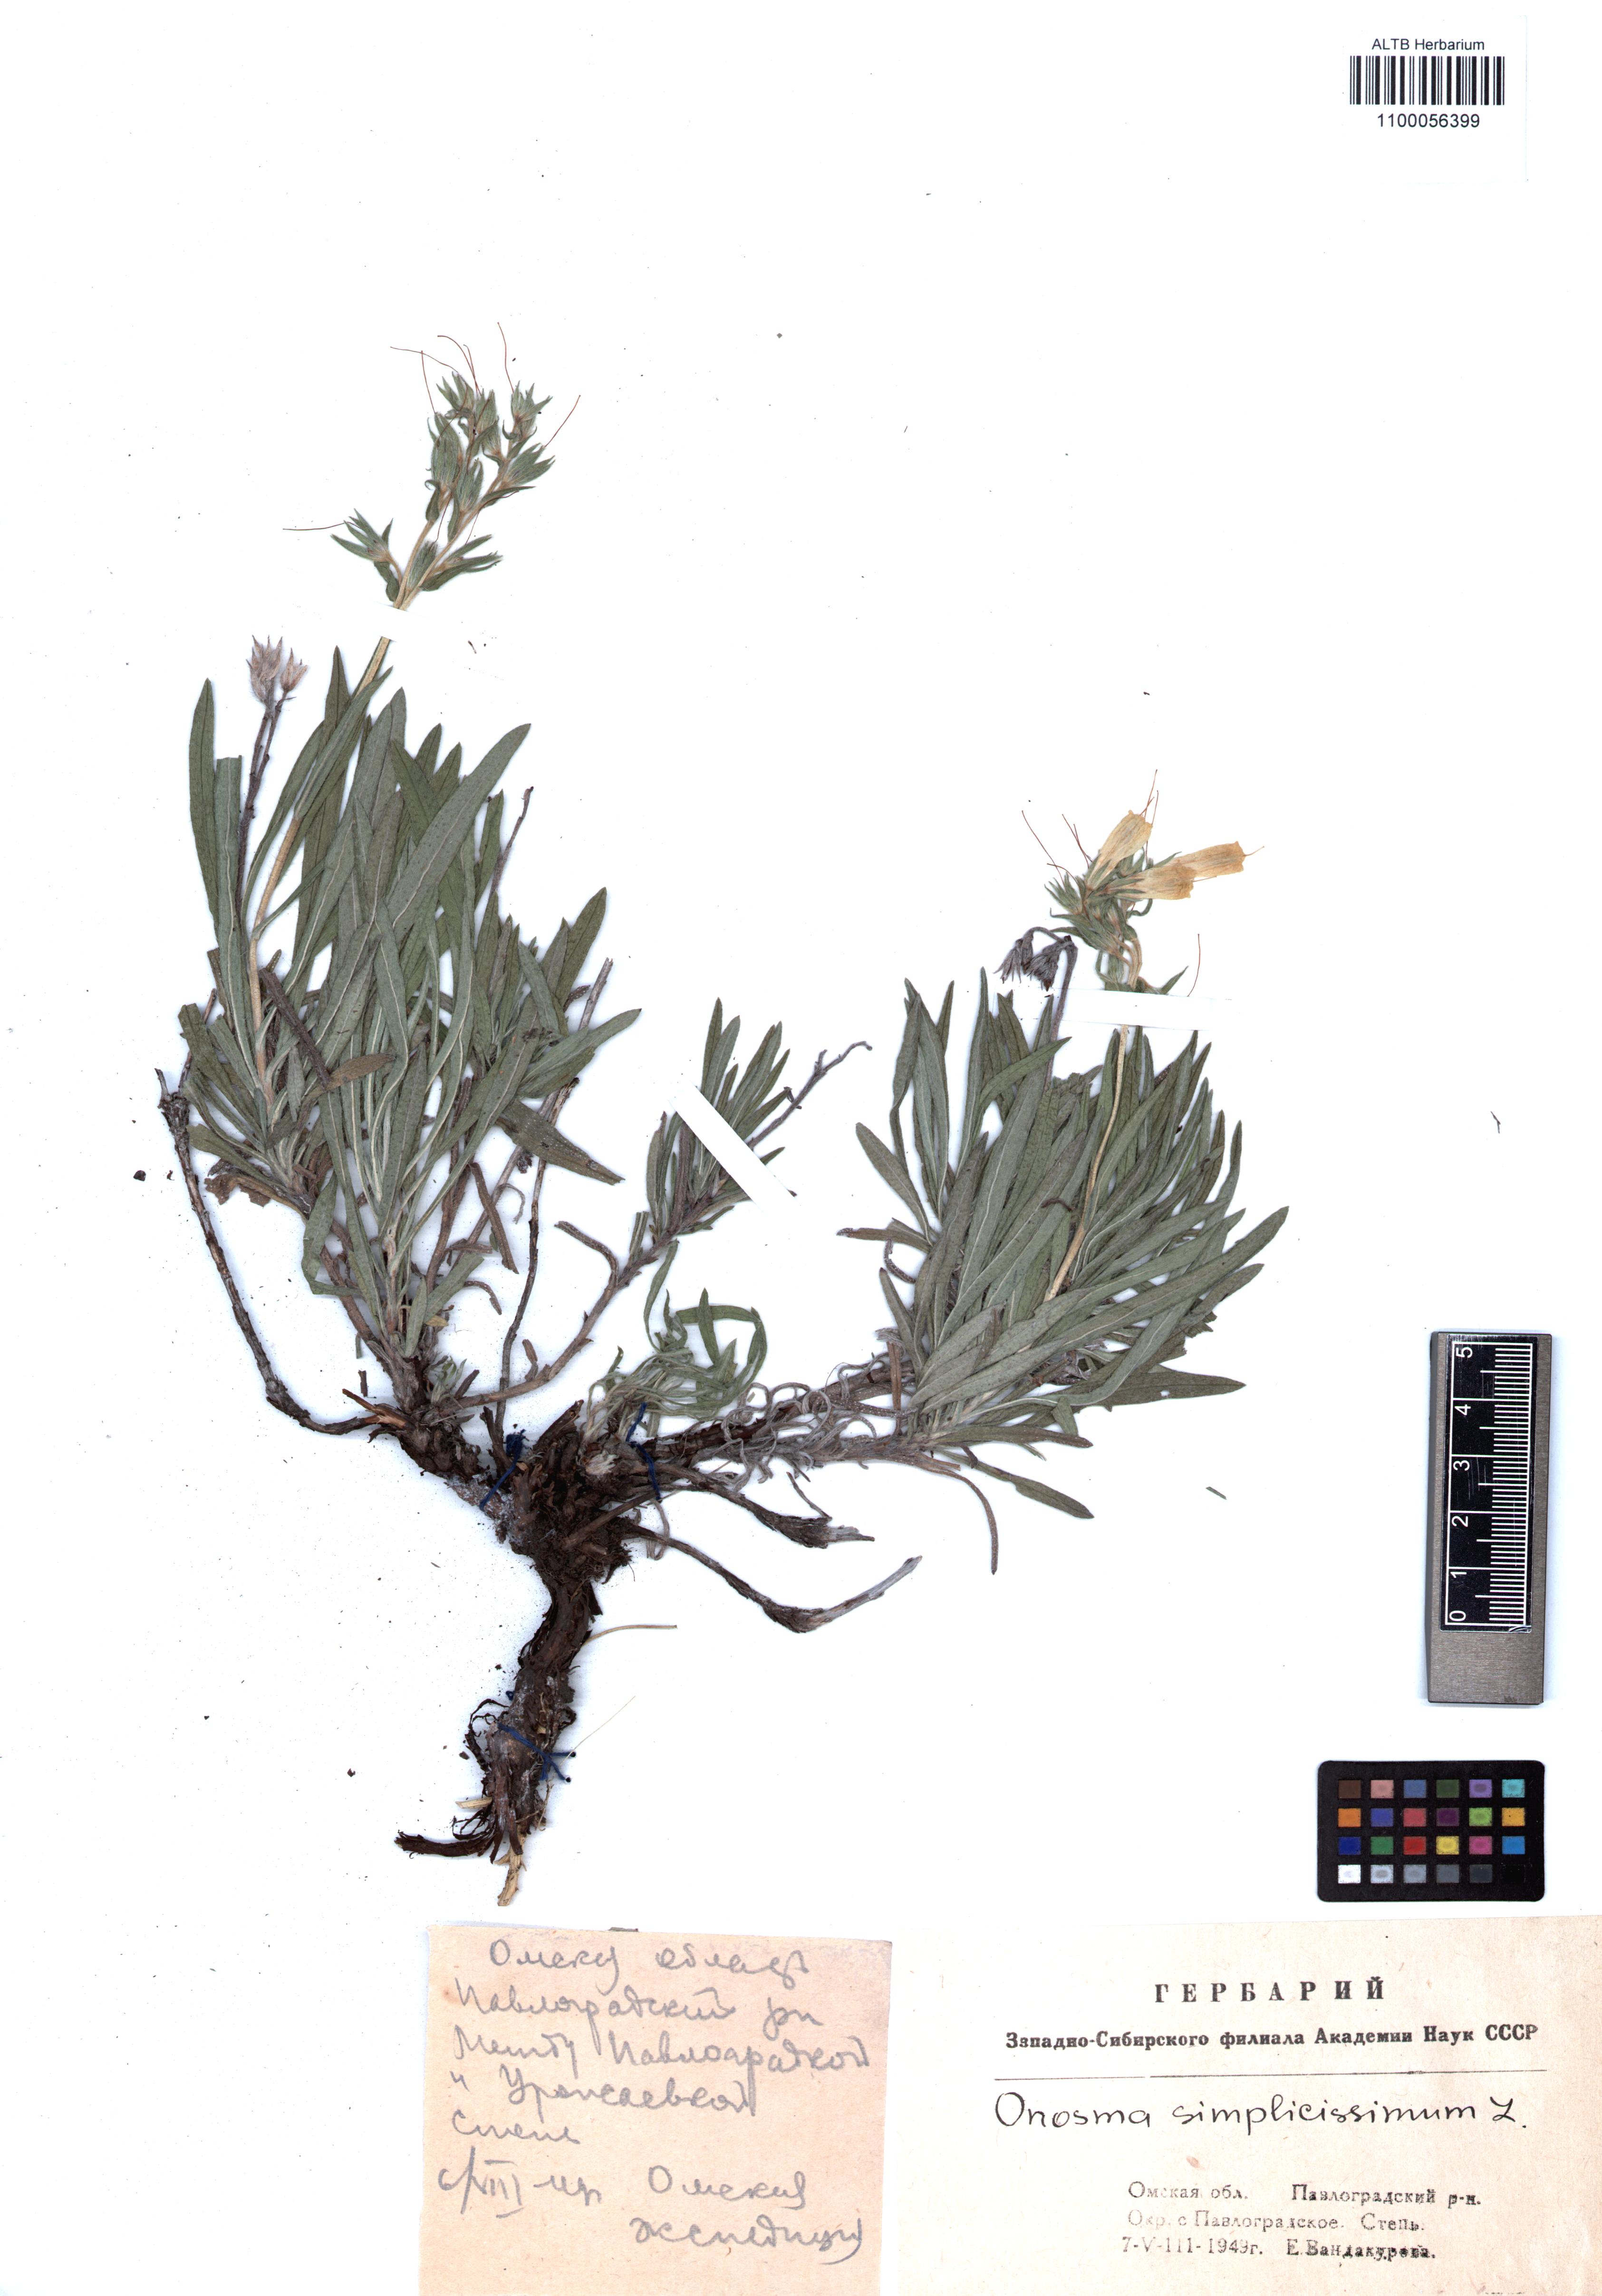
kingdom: Plantae
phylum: Tracheophyta
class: Magnoliopsida
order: Boraginales
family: Boraginaceae
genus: Onosma
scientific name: Onosma simplicissima
